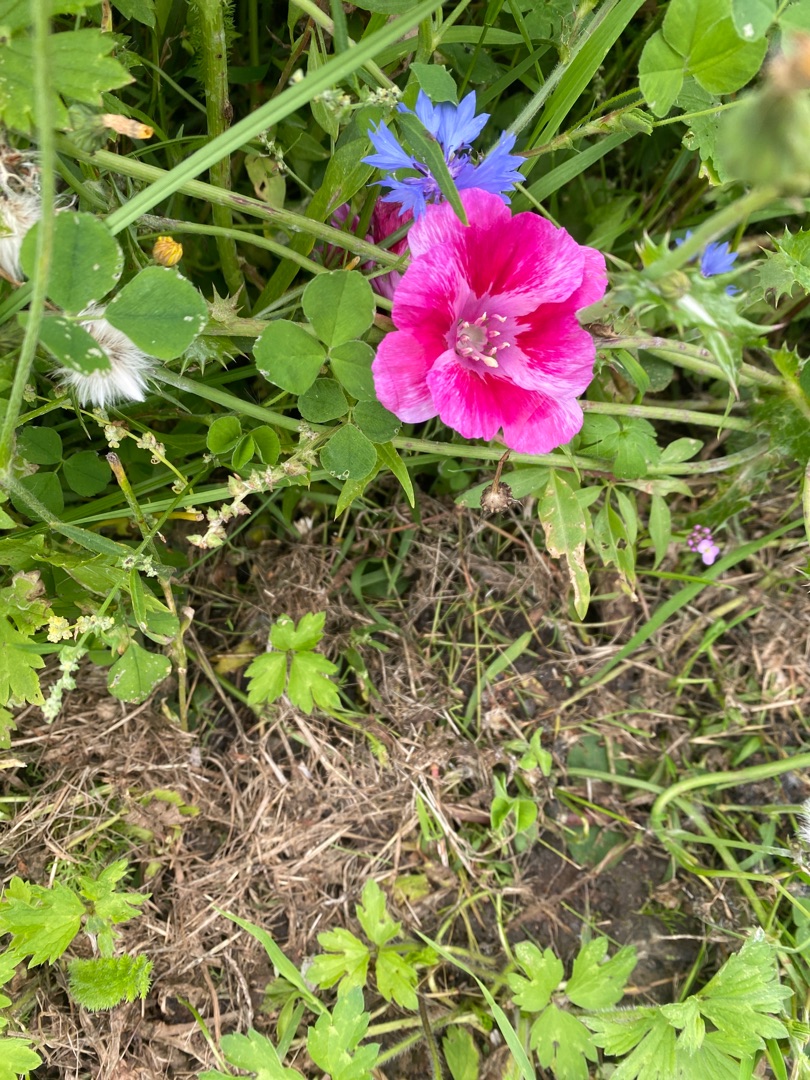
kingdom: Plantae
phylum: Tracheophyta
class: Magnoliopsida
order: Myrtales
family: Onagraceae
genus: Clarkia
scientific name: Clarkia amoena
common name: Atlaskblomst
